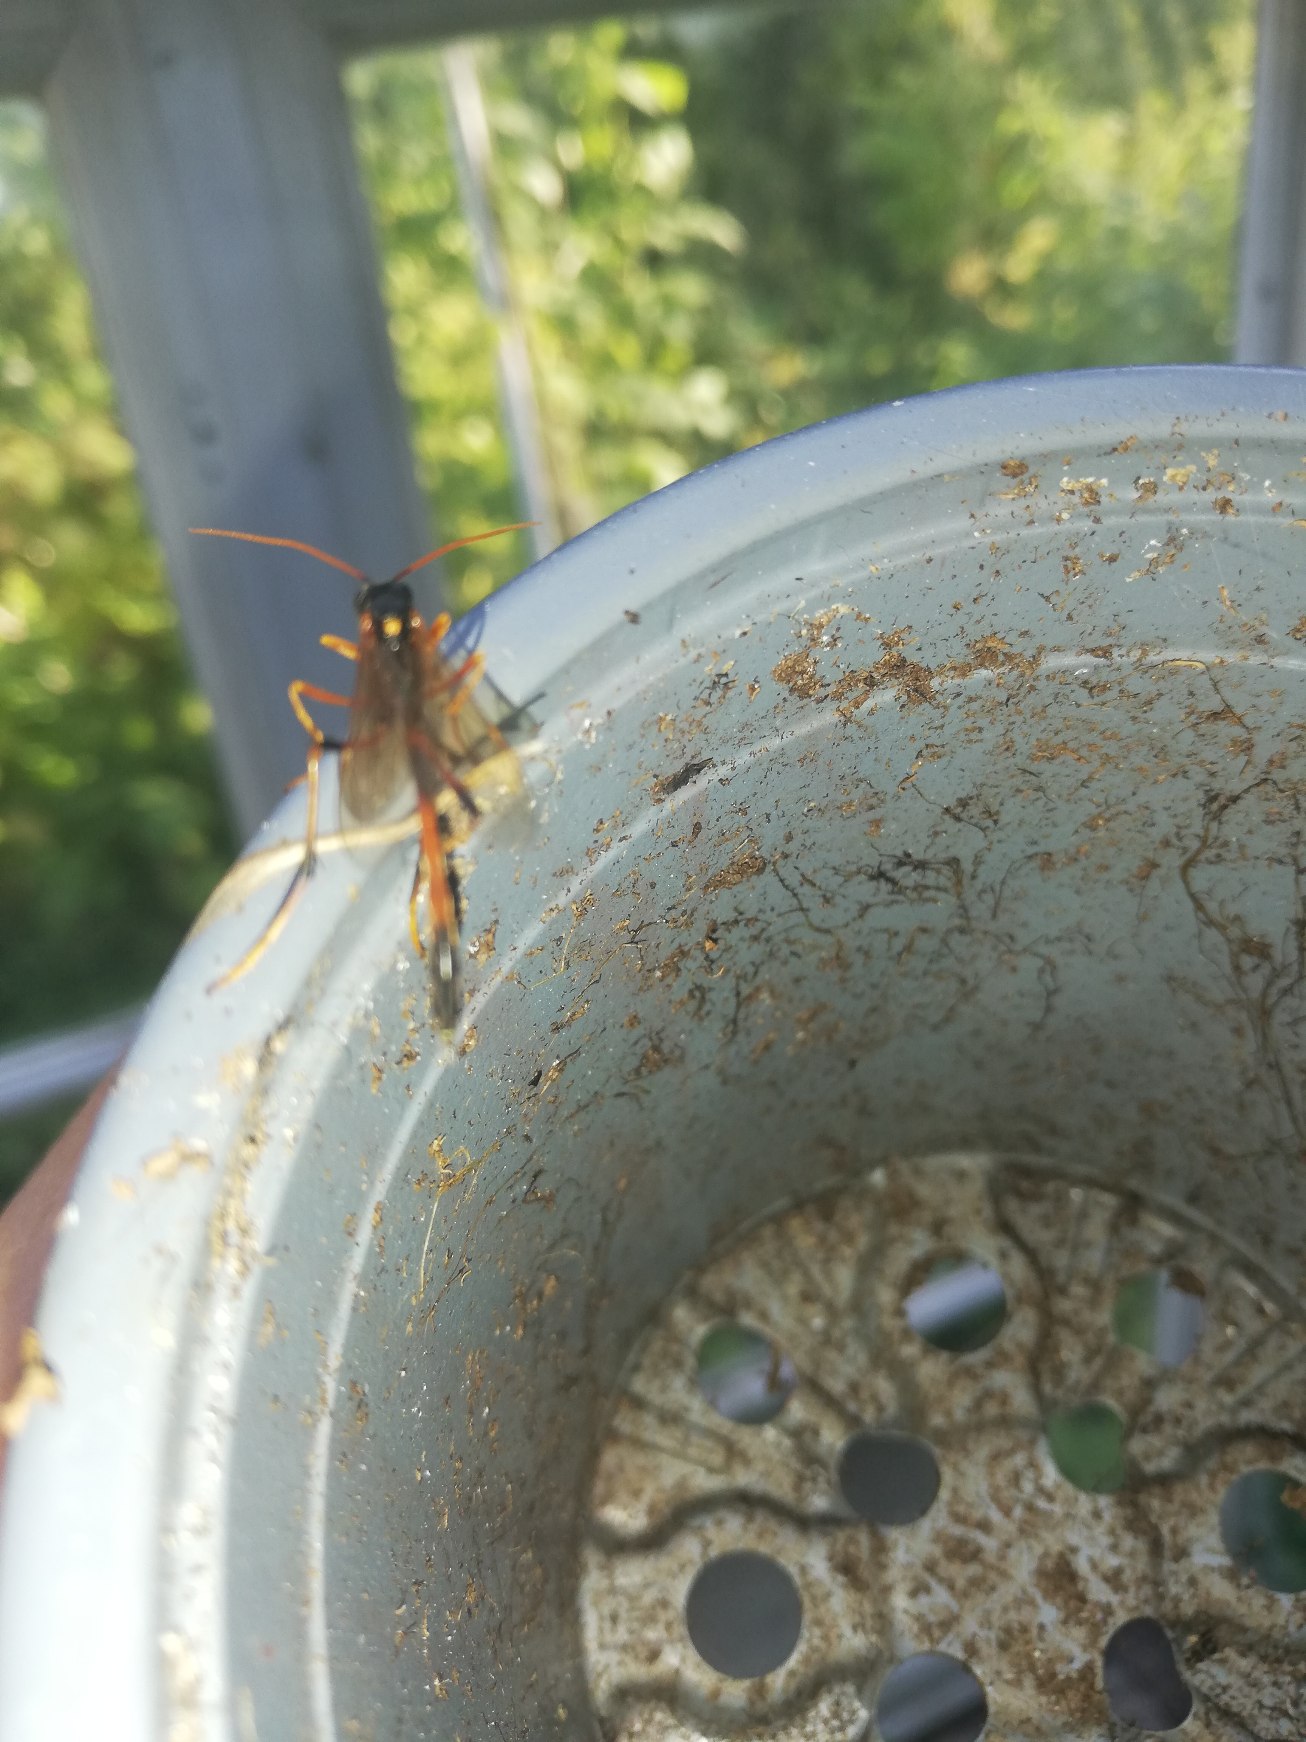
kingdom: Animalia
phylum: Arthropoda
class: Insecta
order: Hymenoptera
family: Ichneumonidae
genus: Therion
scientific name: Therion circumflexum
